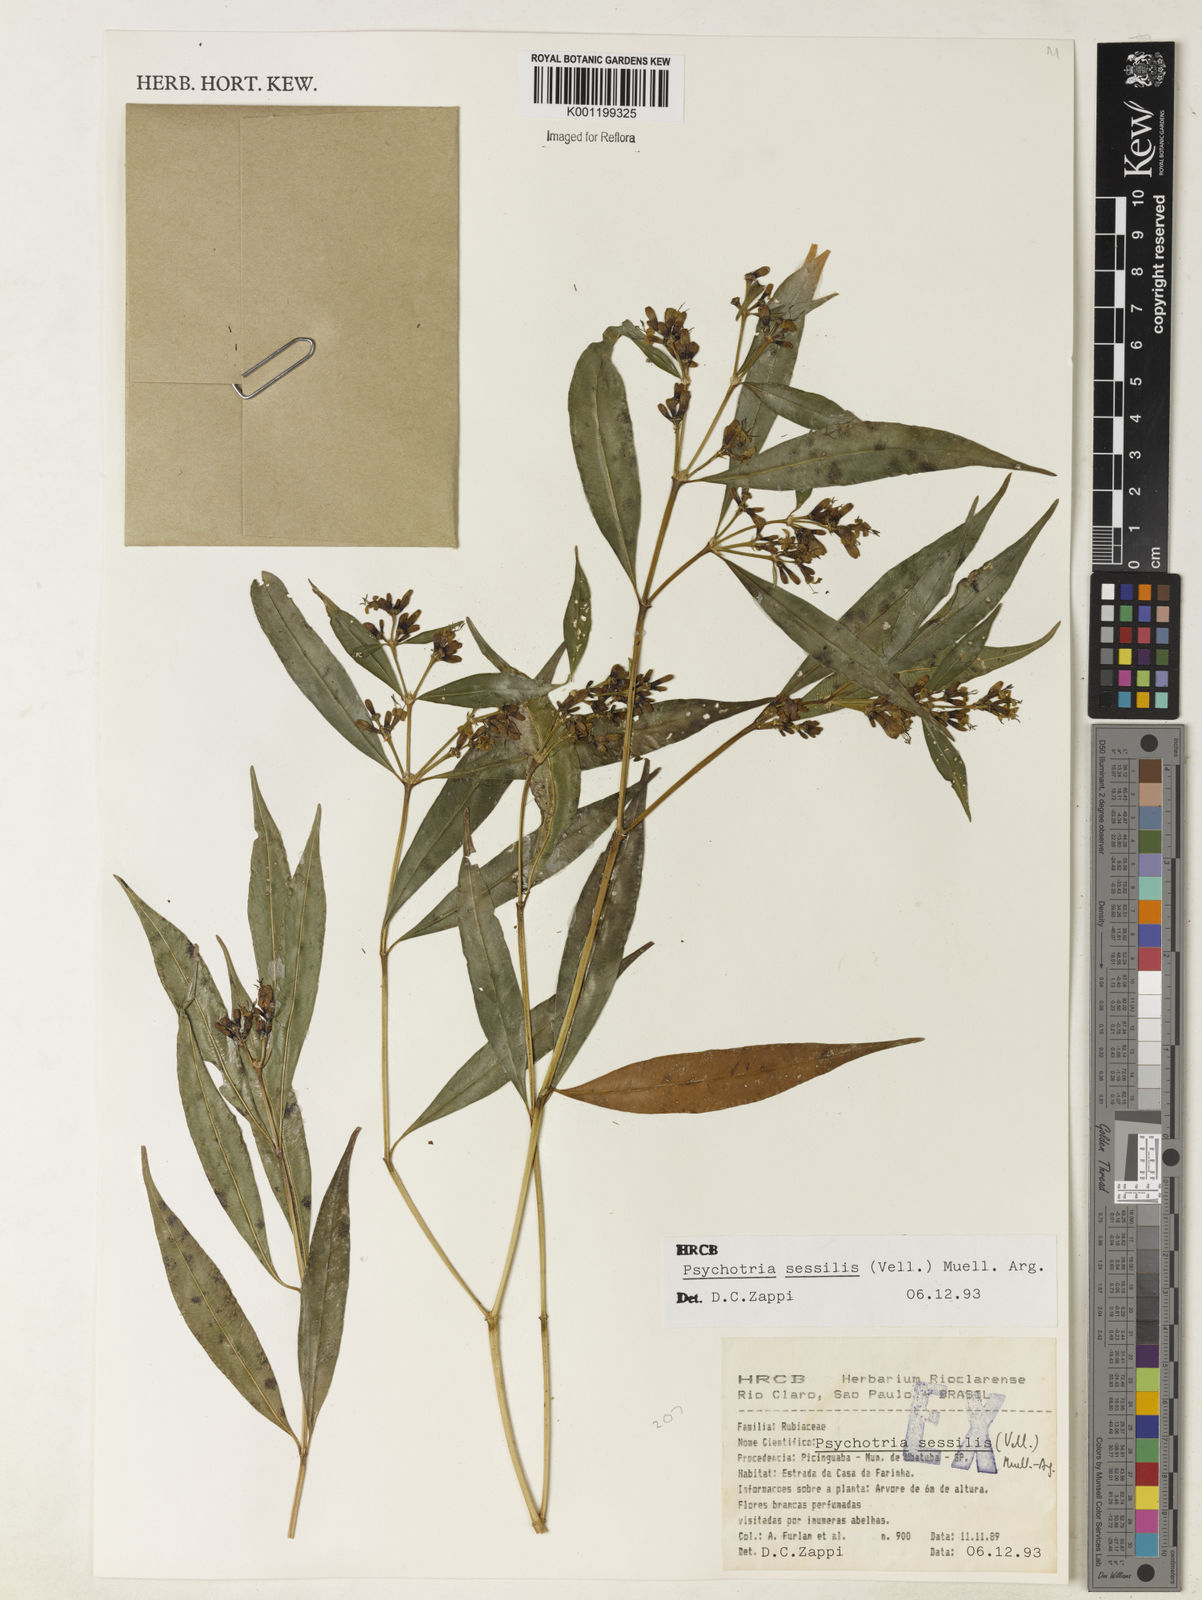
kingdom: Plantae
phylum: Tracheophyta
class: Magnoliopsida
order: Gentianales
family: Rubiaceae
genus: Rudgea
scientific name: Rudgea sessilis
